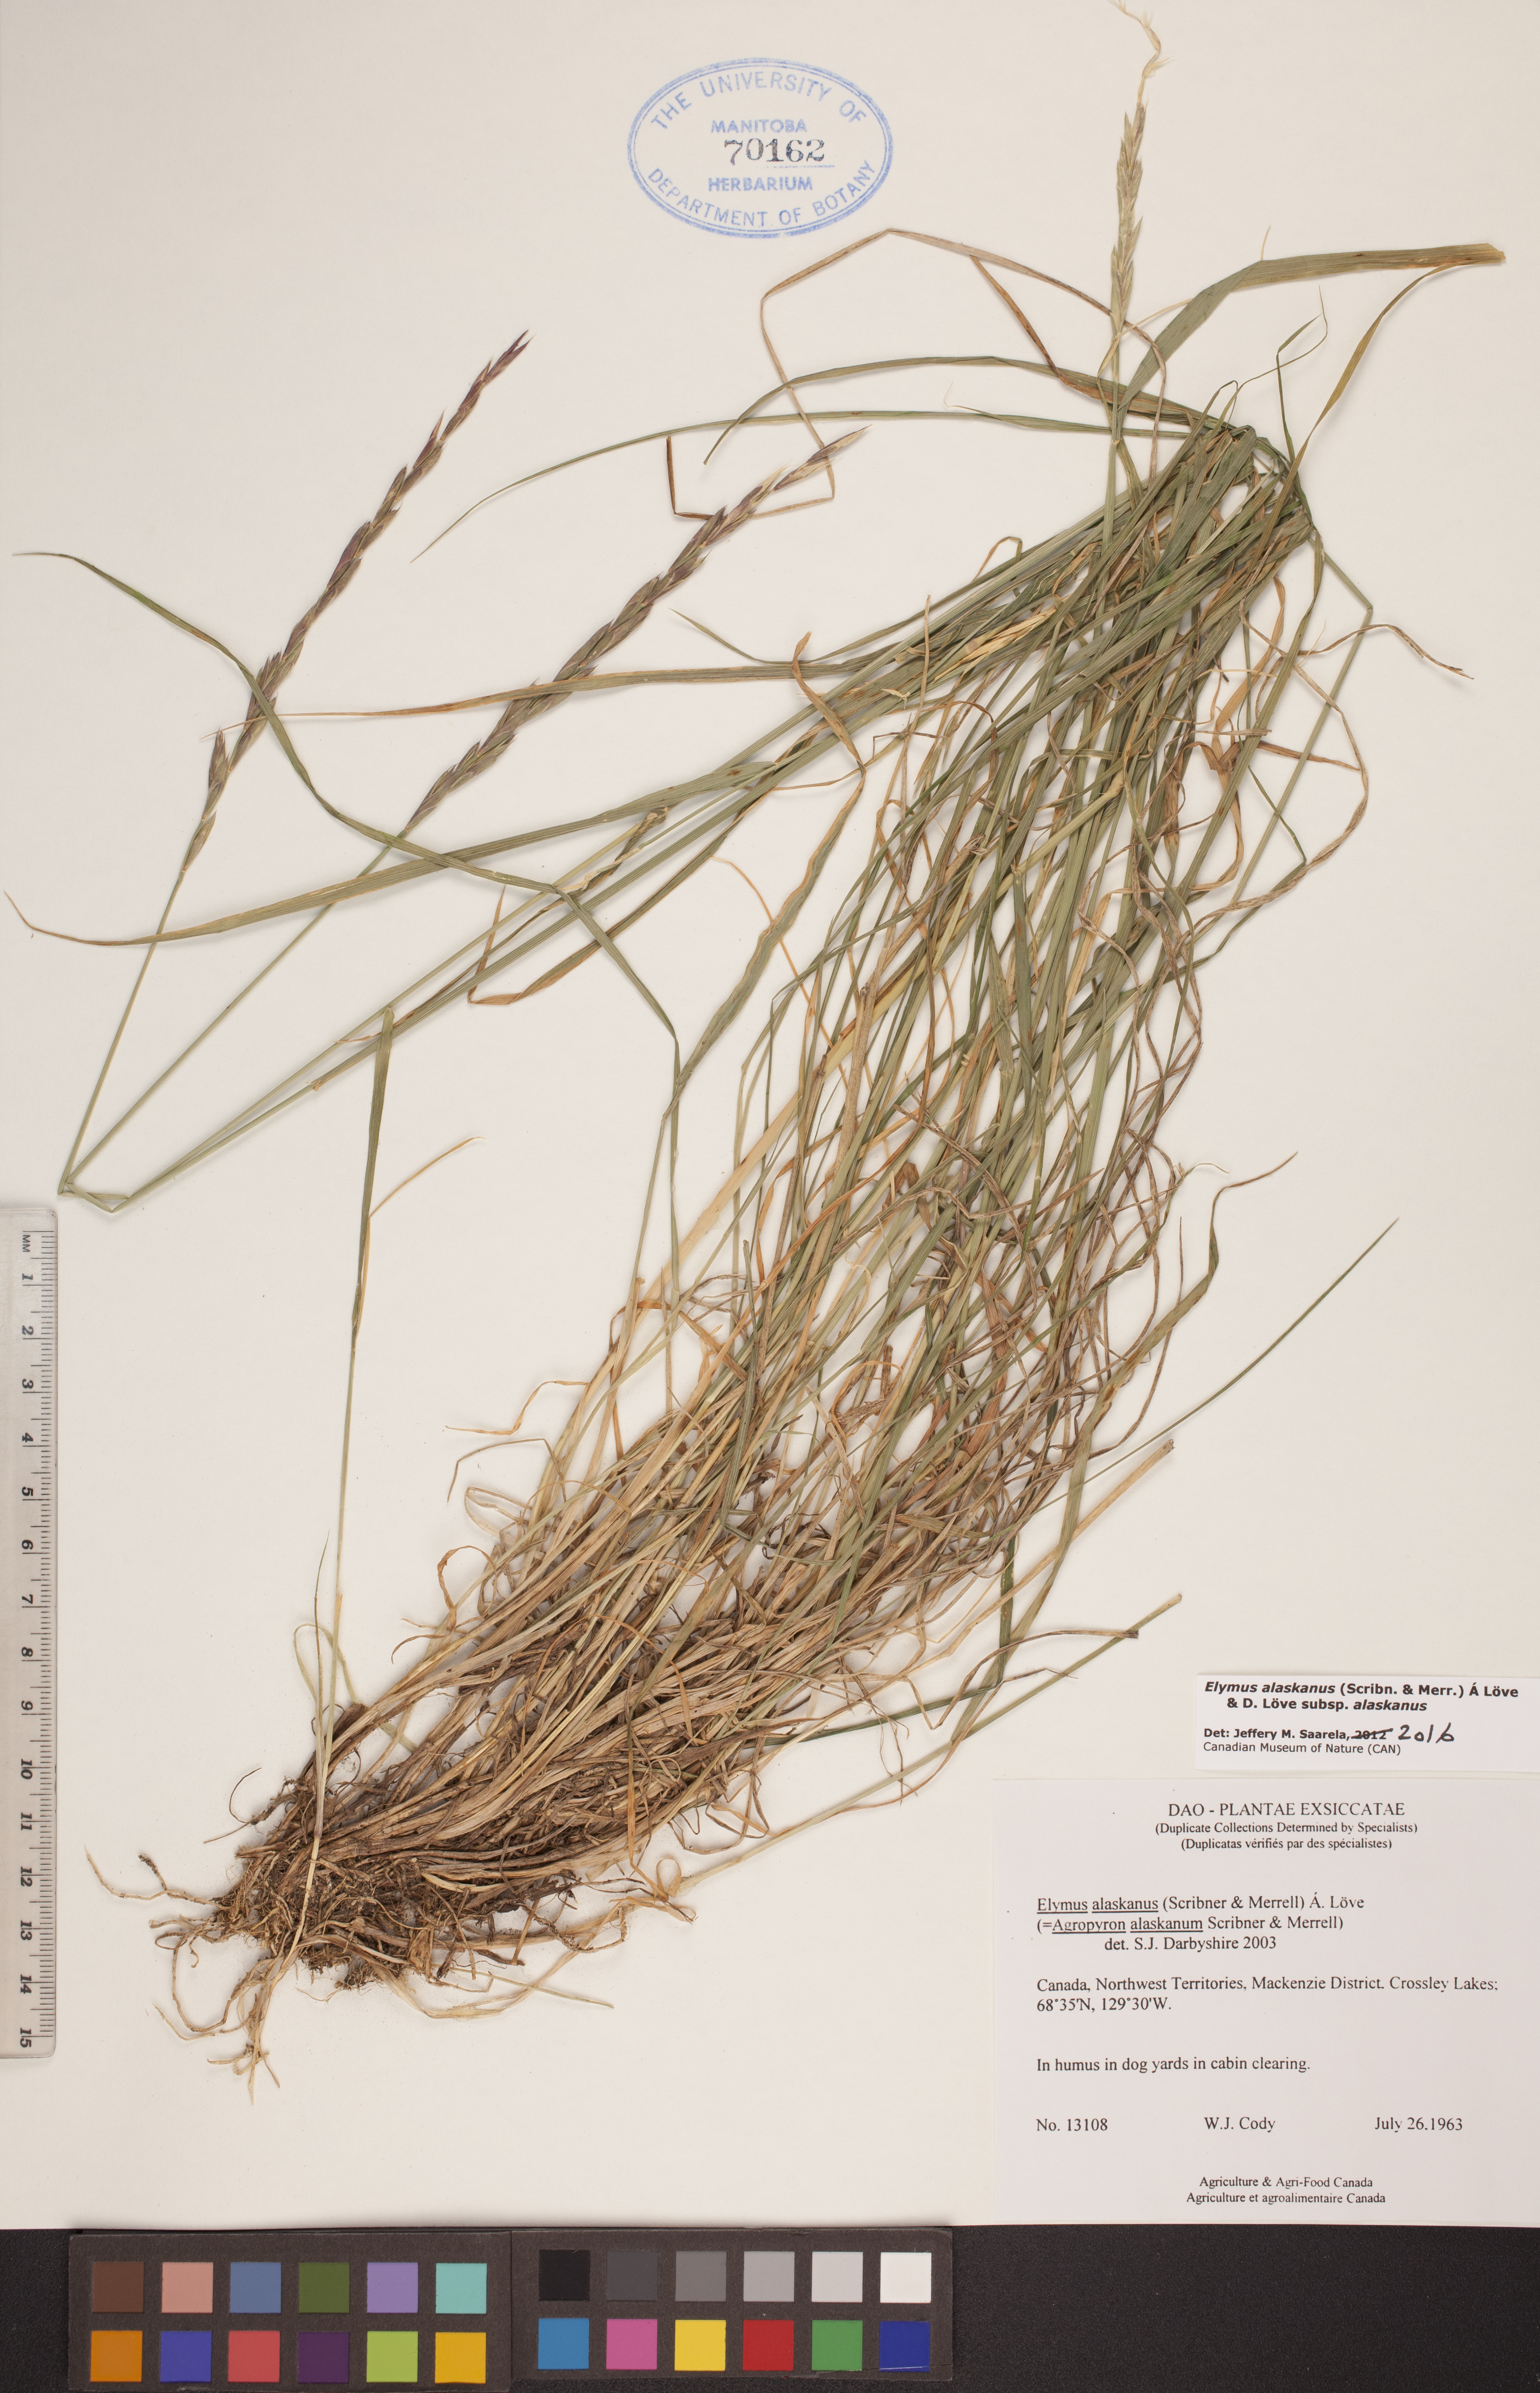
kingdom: Plantae
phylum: Tracheophyta
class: Liliopsida
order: Poales
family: Poaceae
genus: Elymus
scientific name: Elymus alaskanus
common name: Alaska wheatgrass
